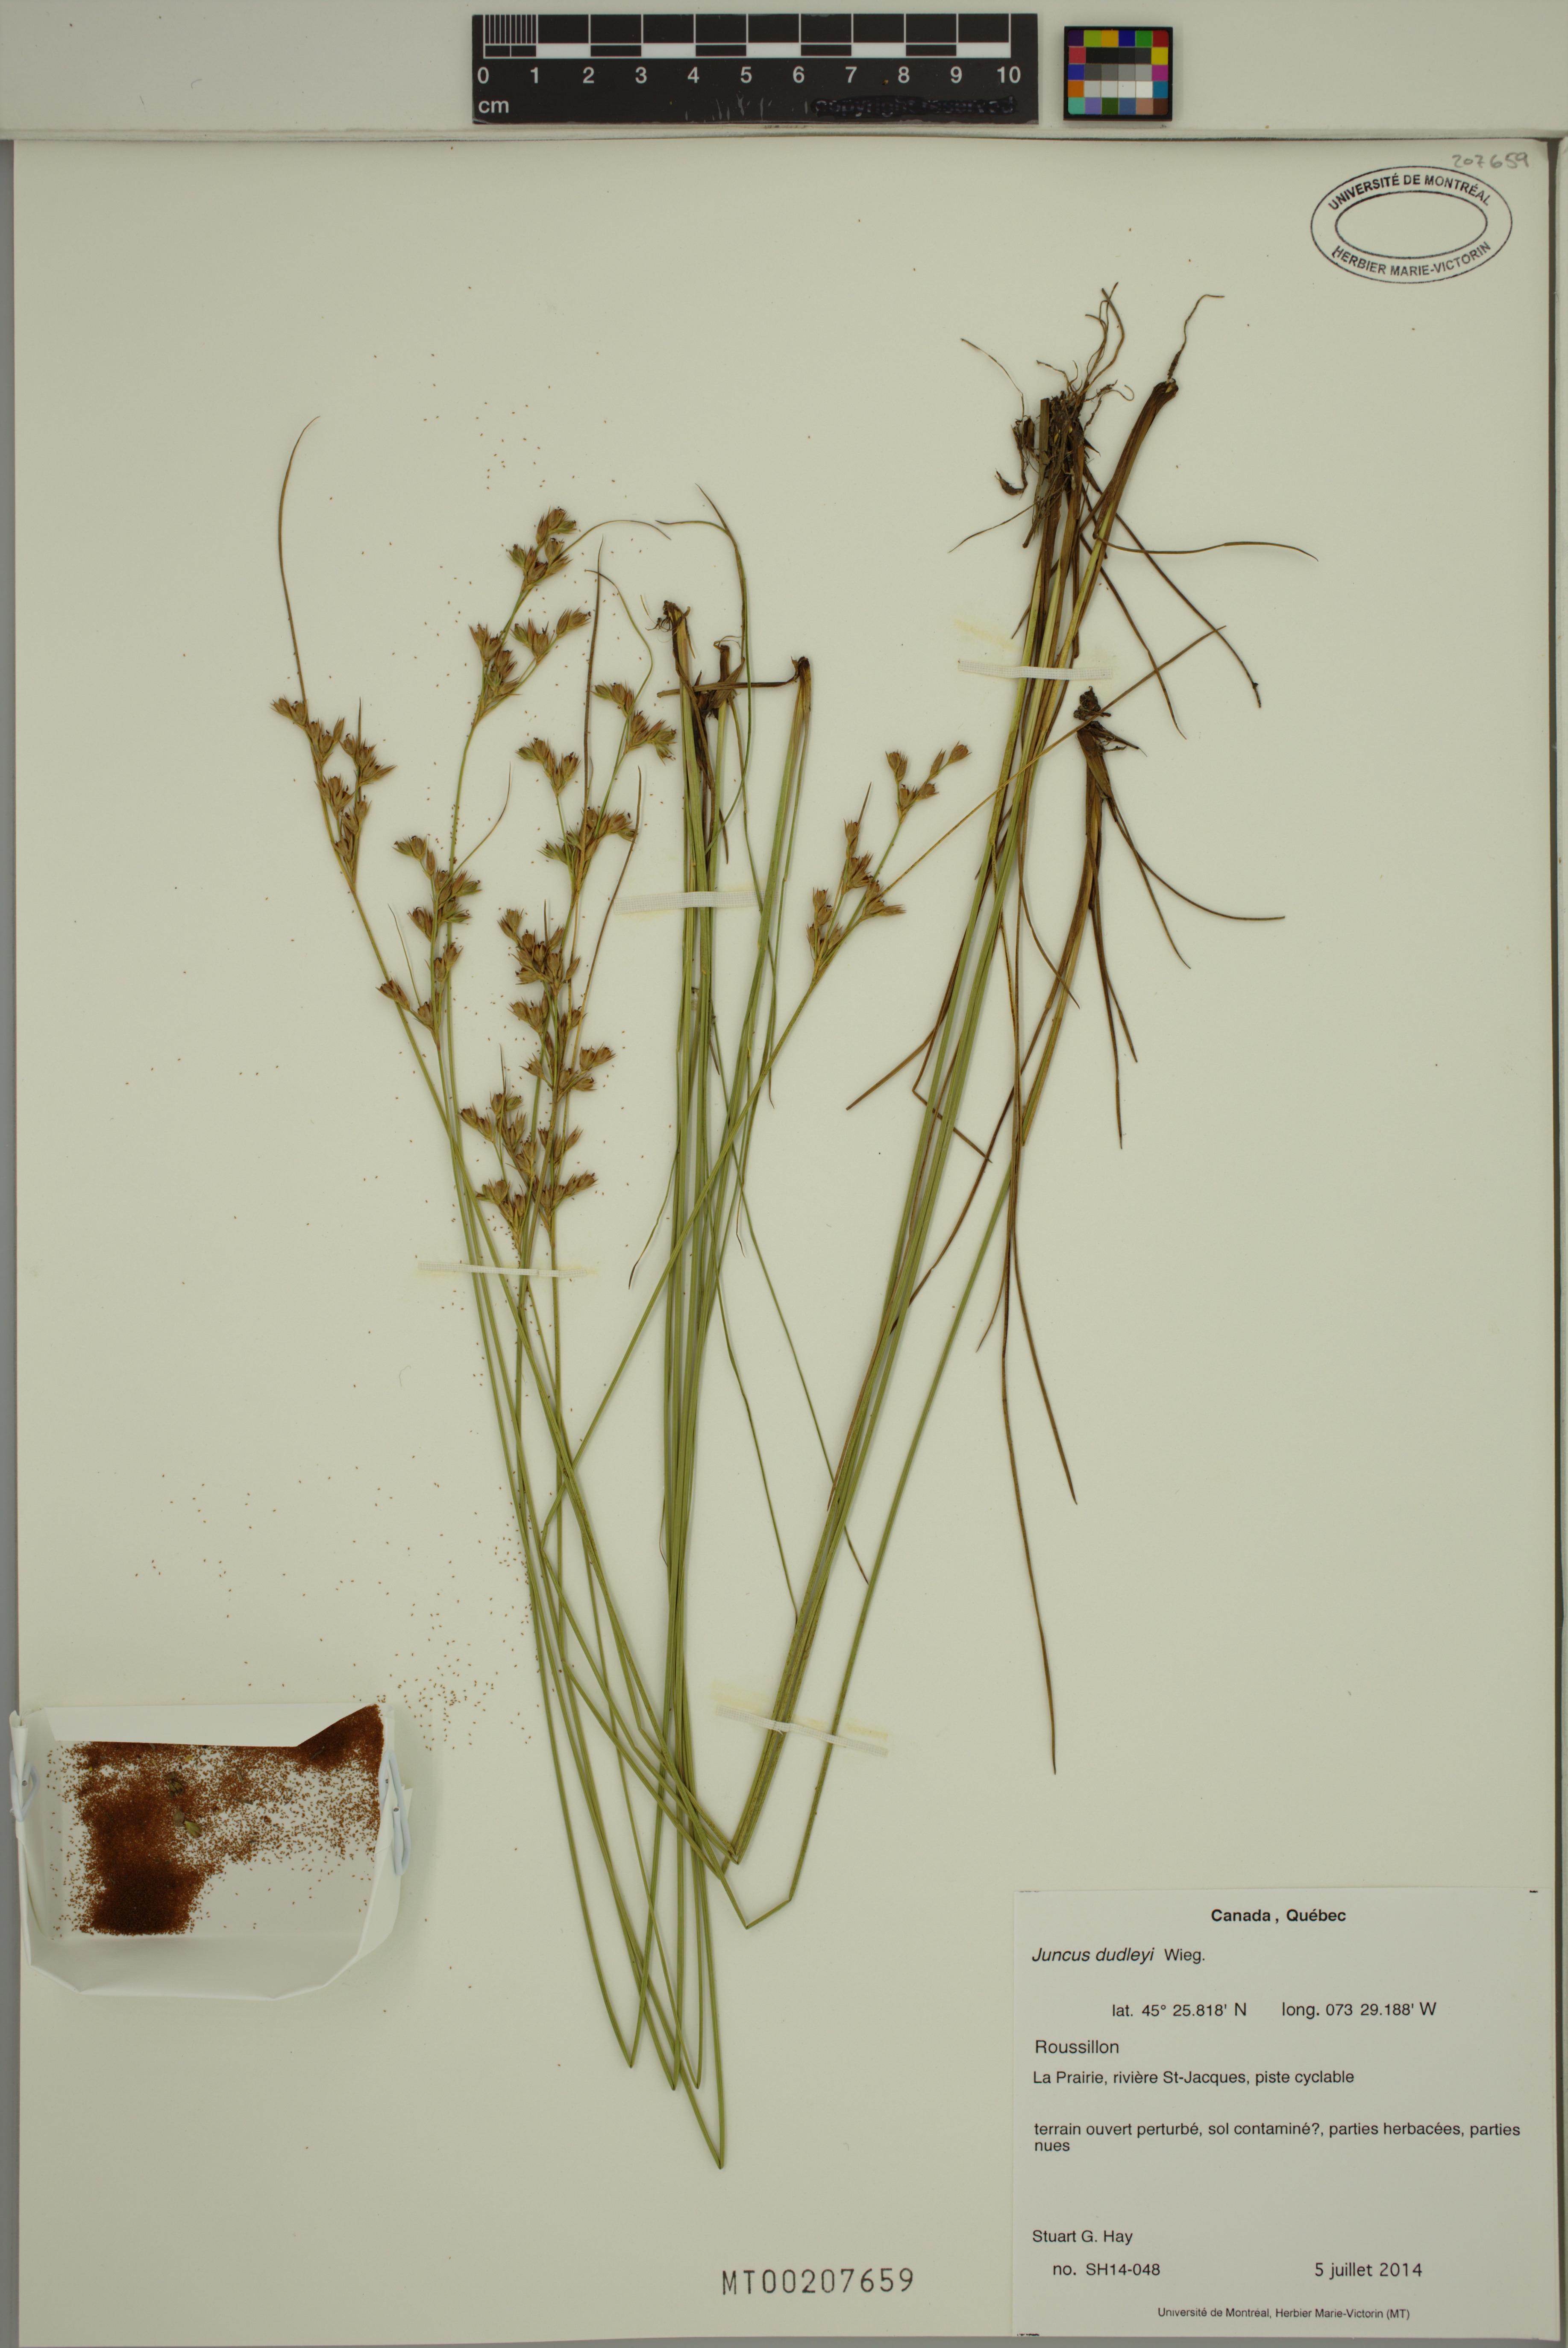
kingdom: Plantae
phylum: Tracheophyta
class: Liliopsida
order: Poales
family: Juncaceae
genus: Juncus
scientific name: Juncus dudleyi
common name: Dudley's rush
